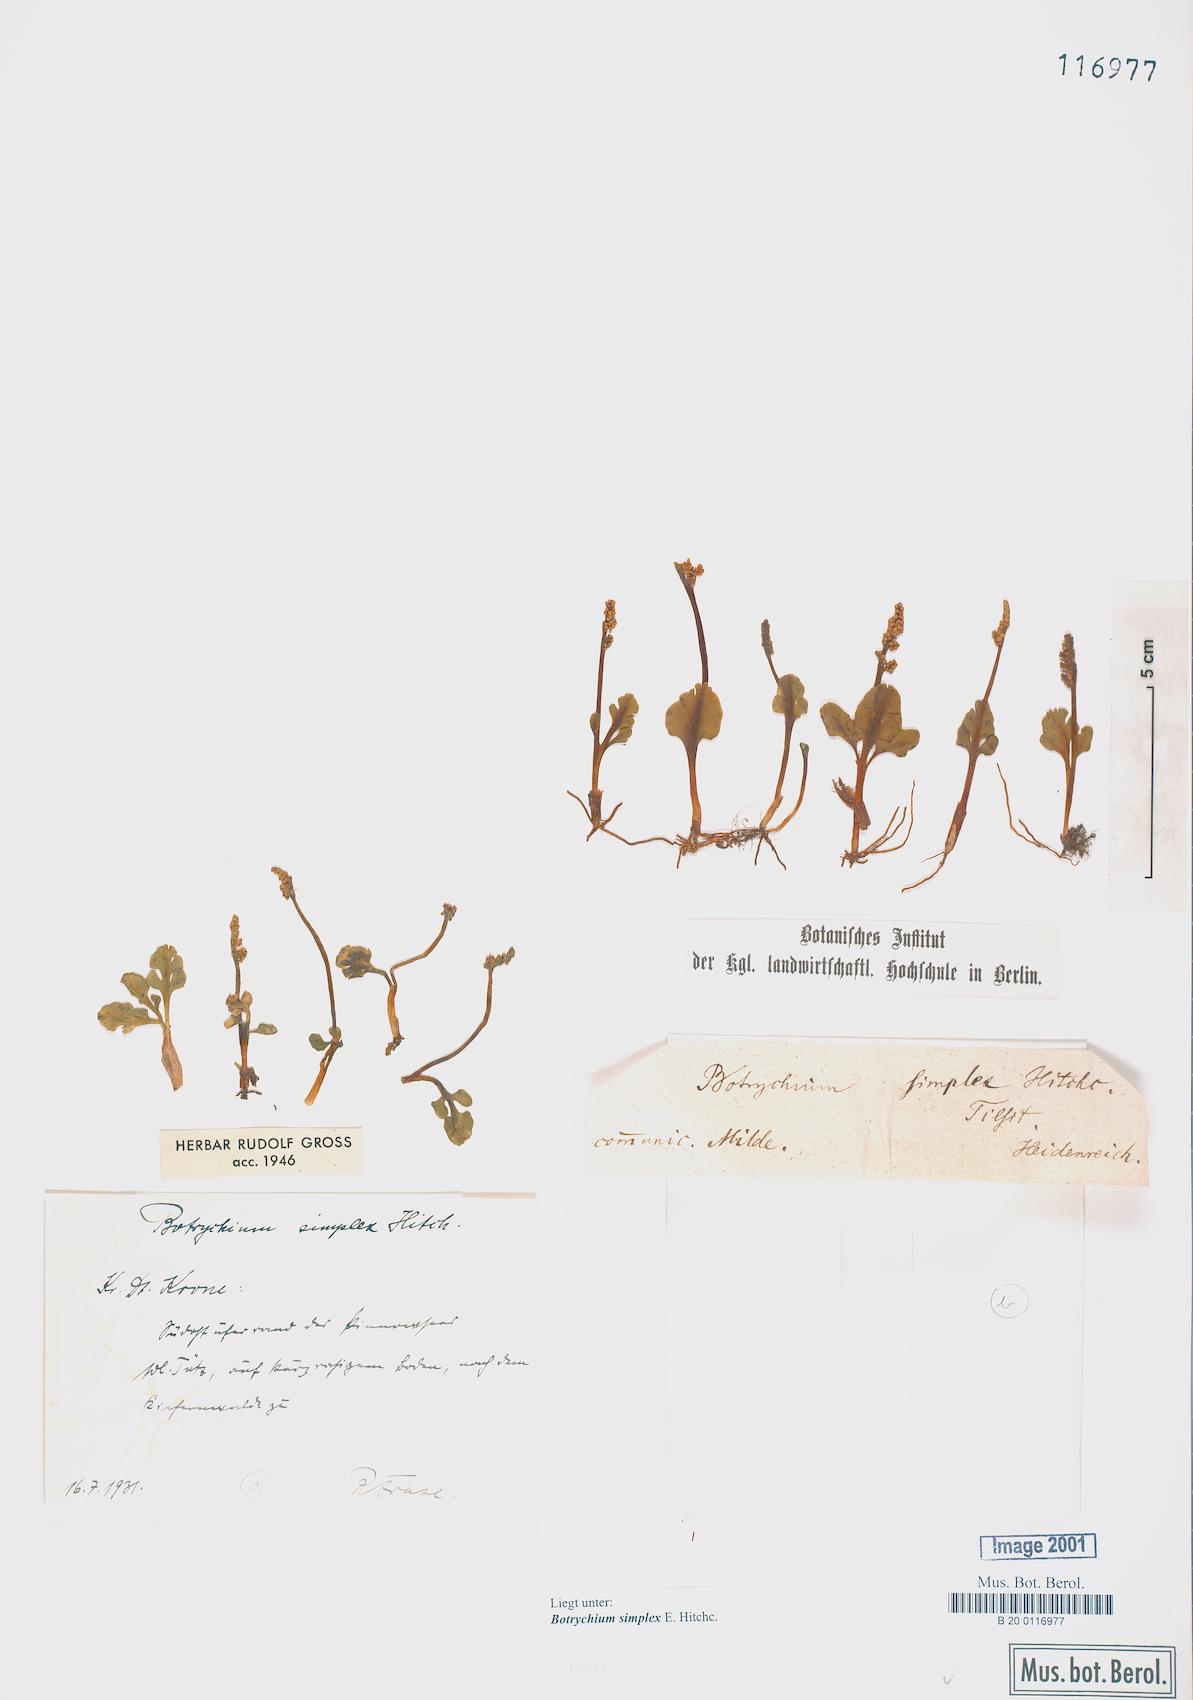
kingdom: Plantae
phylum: Tracheophyta
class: Polypodiopsida
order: Ophioglossales
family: Ophioglossaceae
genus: Botrychium
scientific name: Botrychium simplex
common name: Least moonwort
